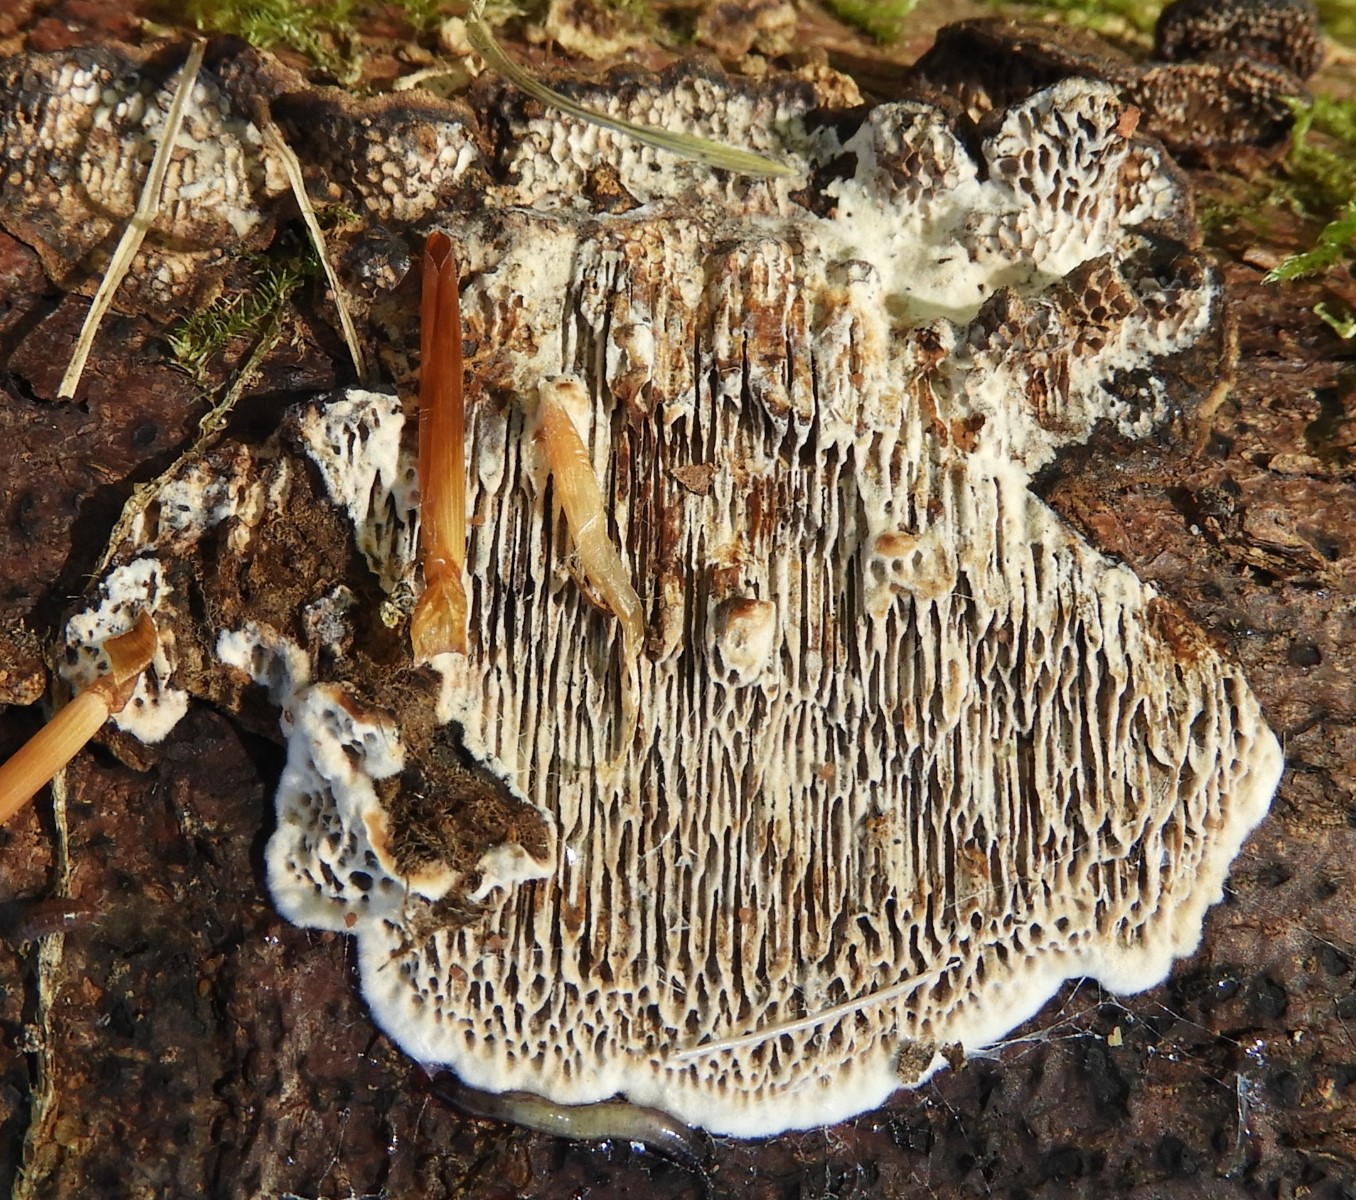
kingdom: Fungi
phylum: Basidiomycota
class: Agaricomycetes
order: Polyporales
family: Polyporaceae
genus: Podofomes
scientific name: Podofomes mollis
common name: blød begporesvamp
